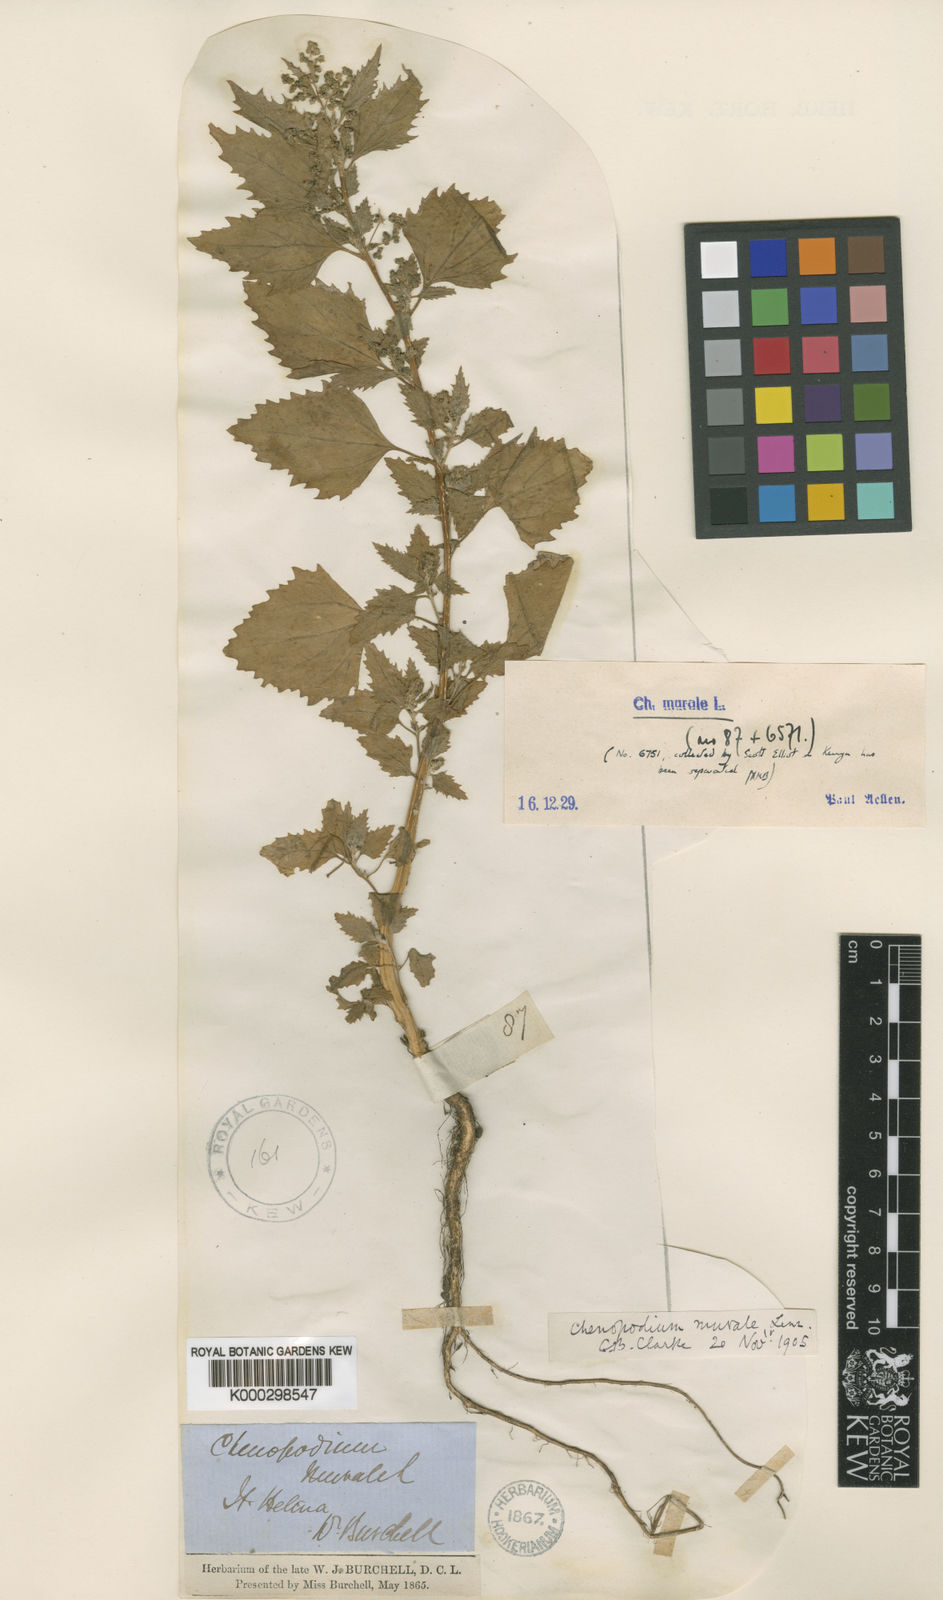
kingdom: Plantae
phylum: Tracheophyta
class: Magnoliopsida
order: Caryophyllales
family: Amaranthaceae
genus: Chenopodiastrum
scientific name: Chenopodiastrum
